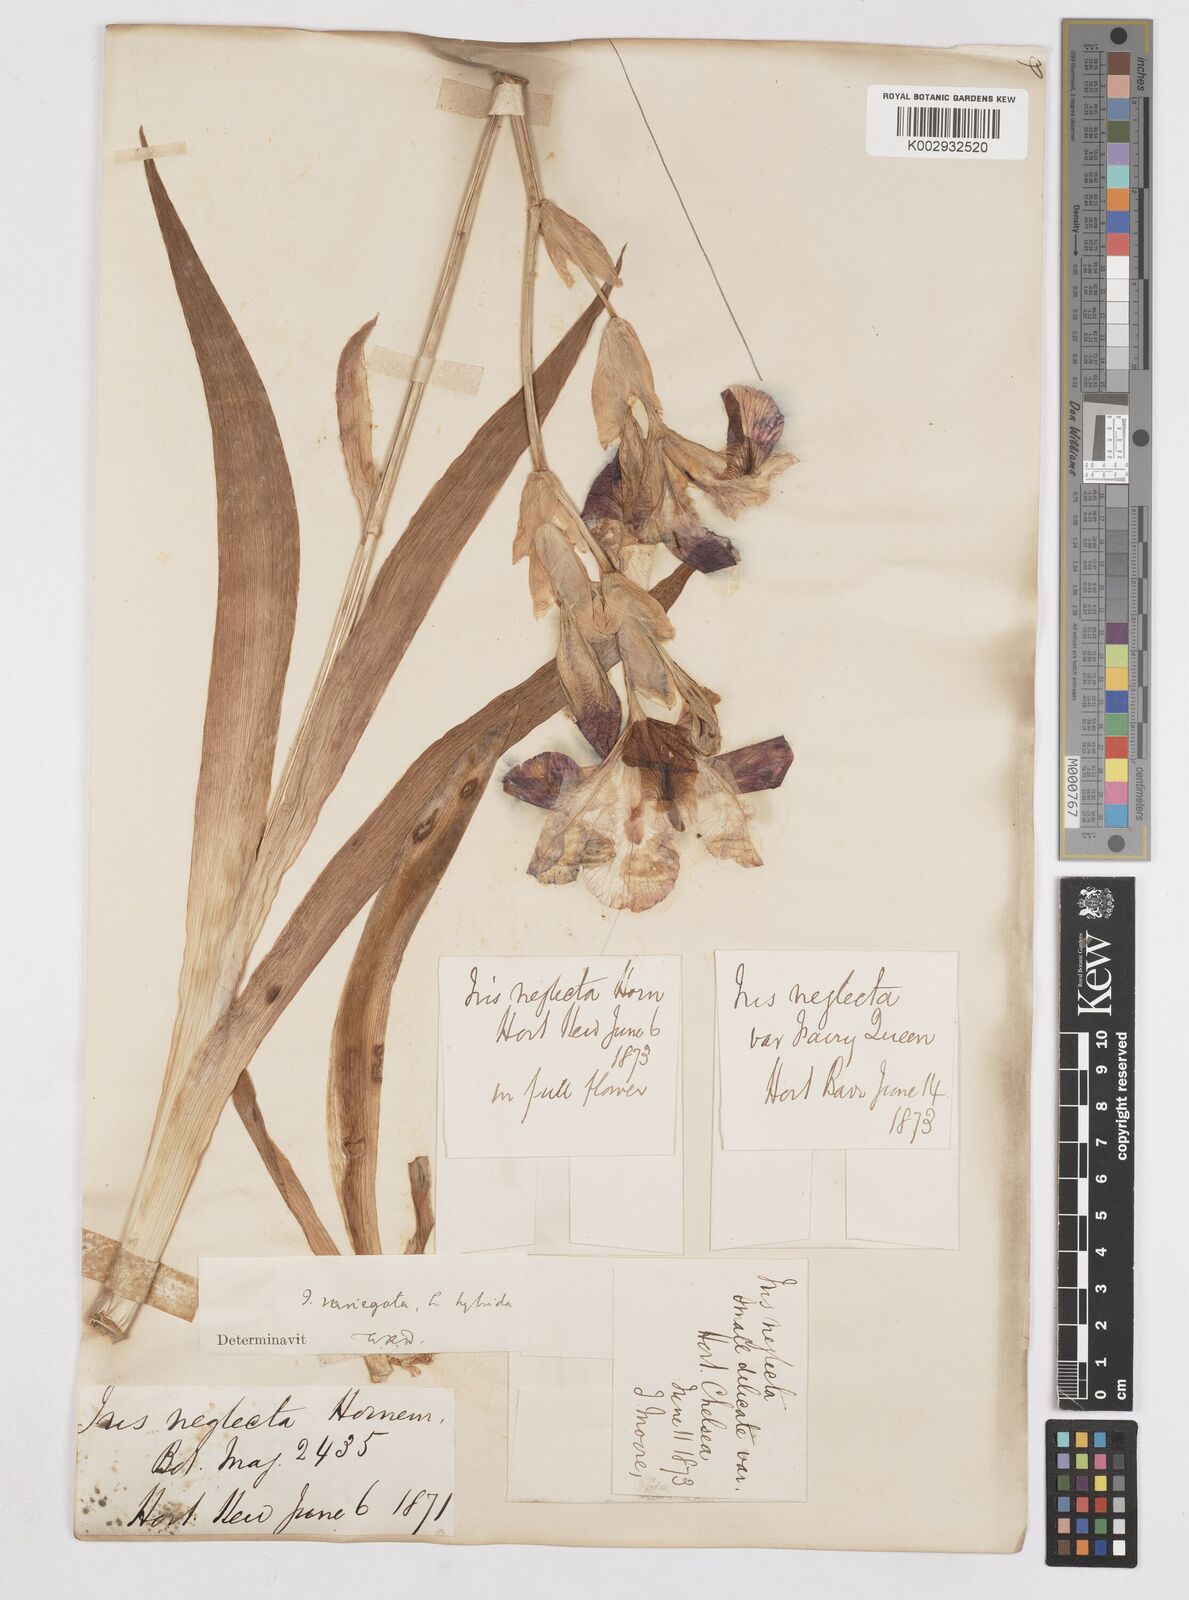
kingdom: Plantae
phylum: Tracheophyta
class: Liliopsida
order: Asparagales
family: Iridaceae
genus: Iris
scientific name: Iris
